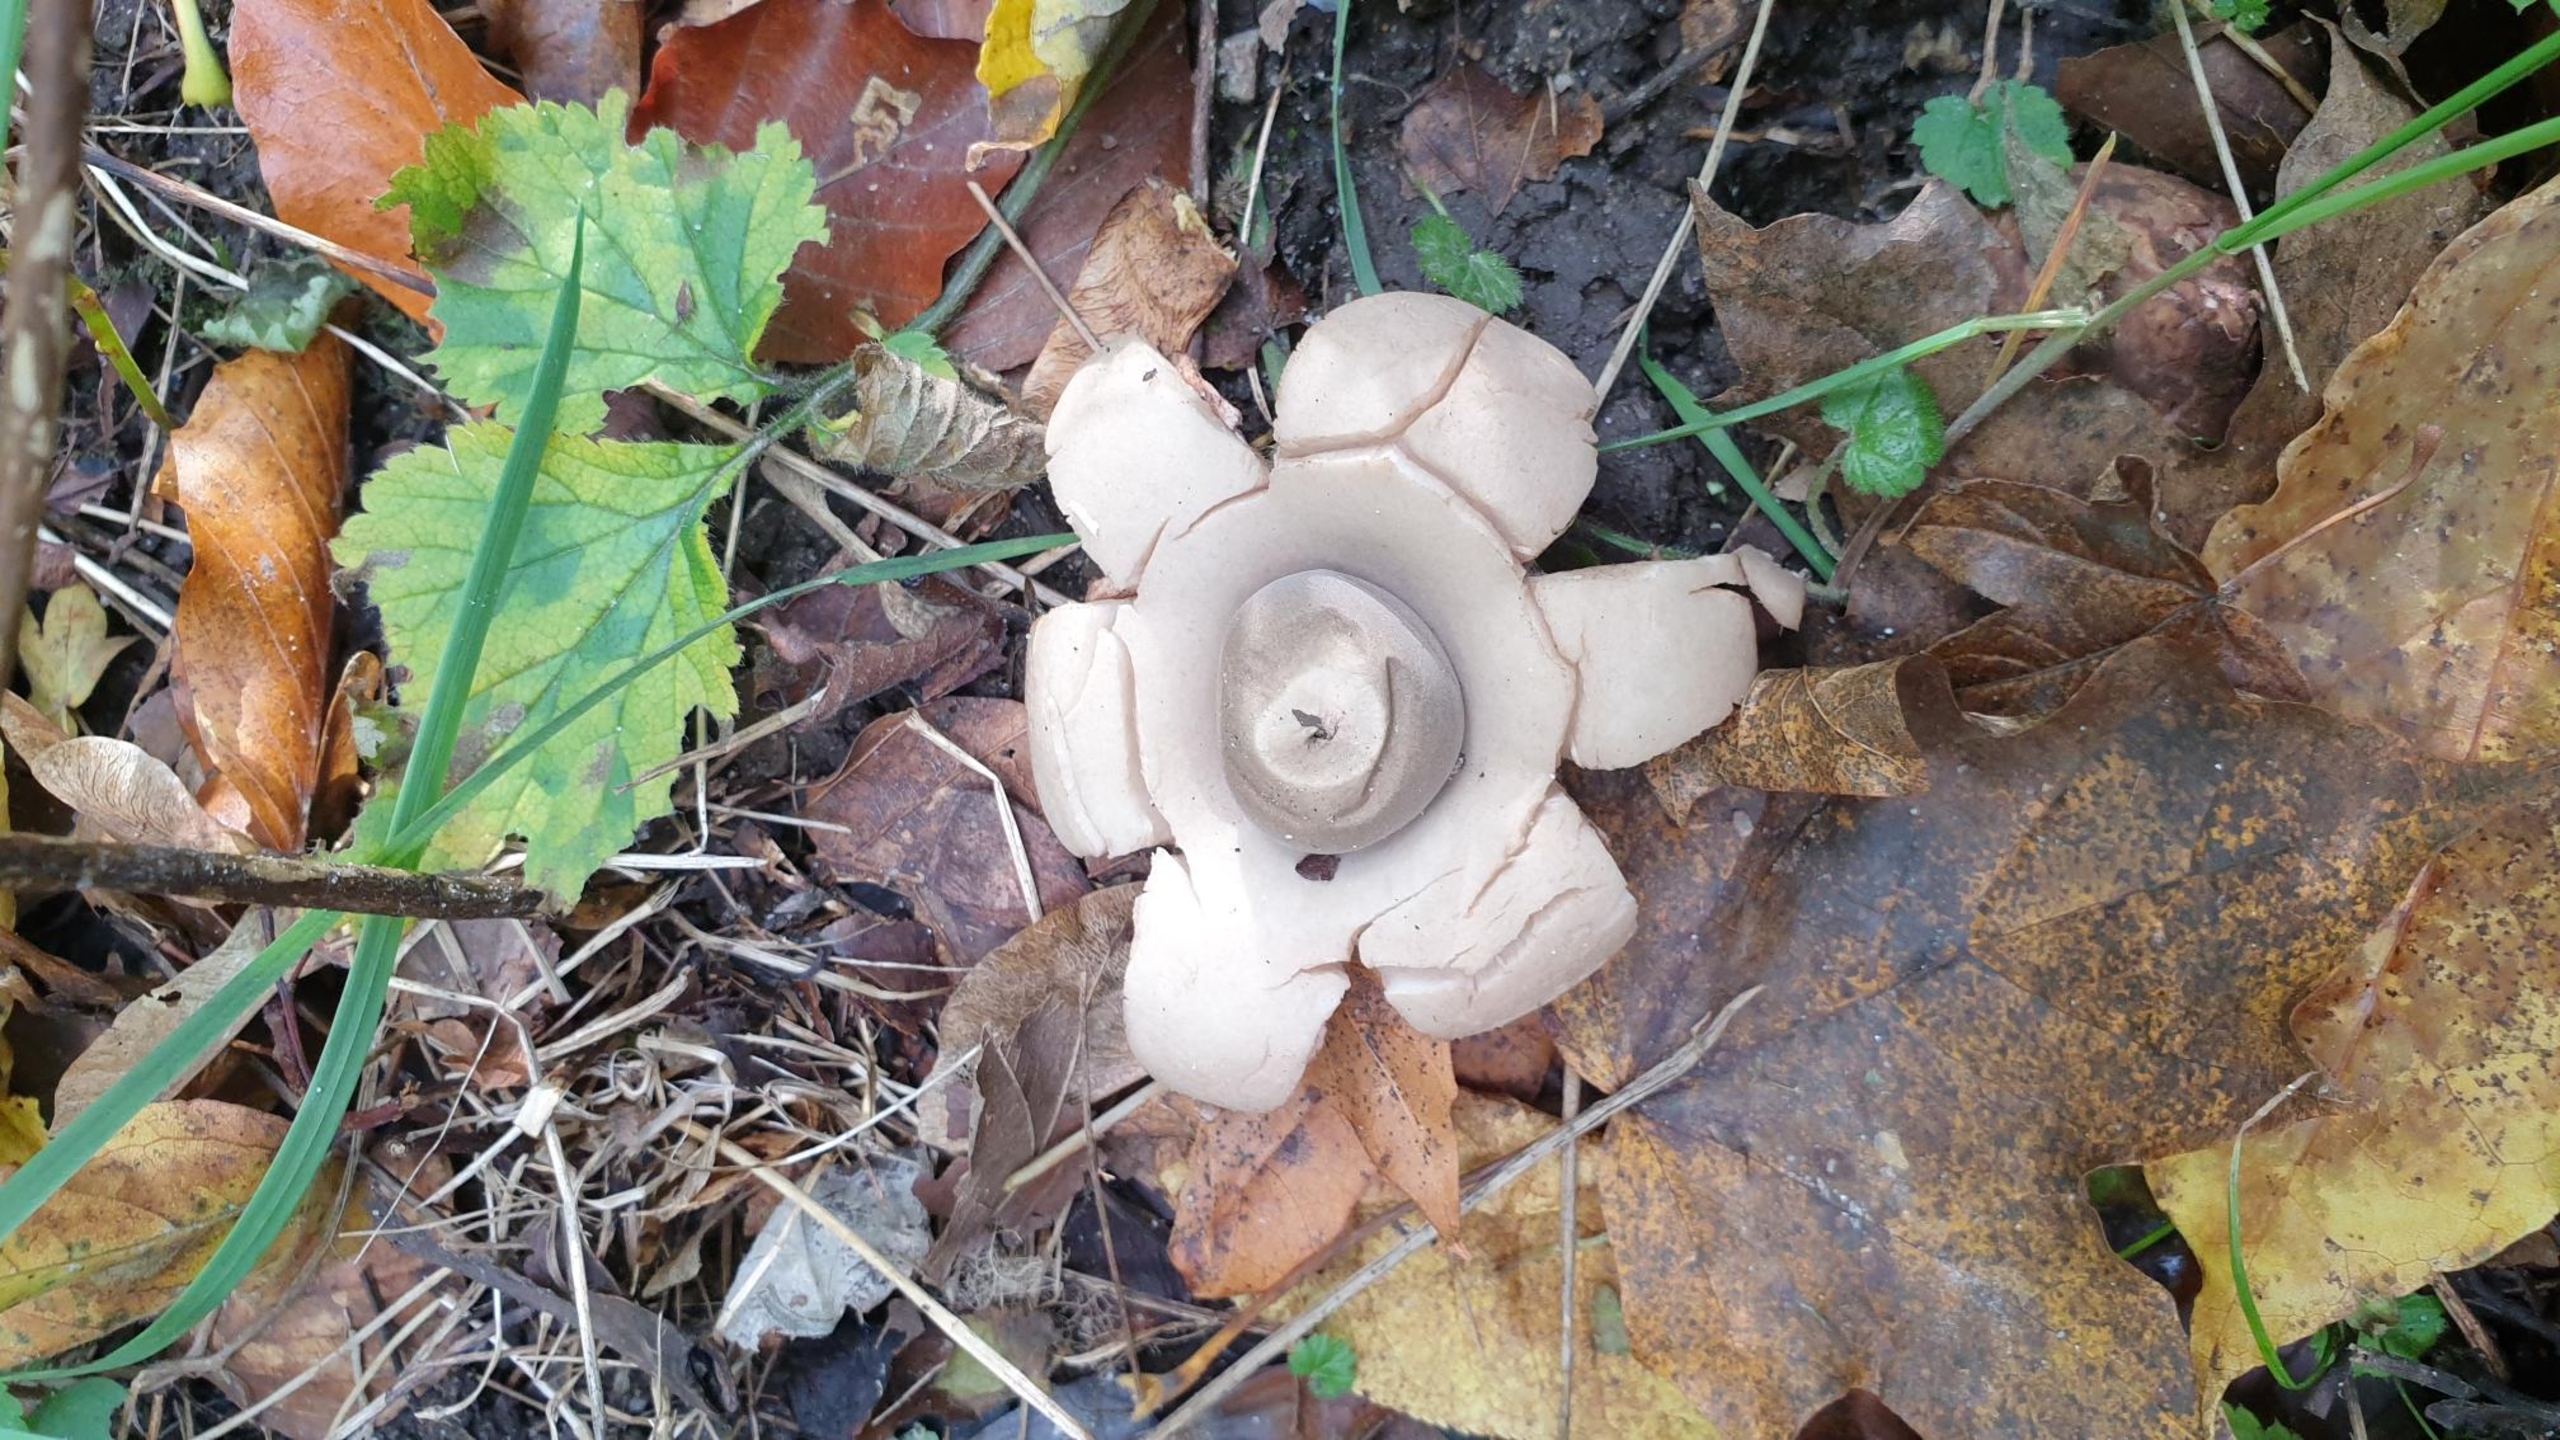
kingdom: Fungi
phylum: Basidiomycota
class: Agaricomycetes
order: Geastrales
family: Geastraceae
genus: Geastrum
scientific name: Geastrum michelianum
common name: Kødet stjernebold
